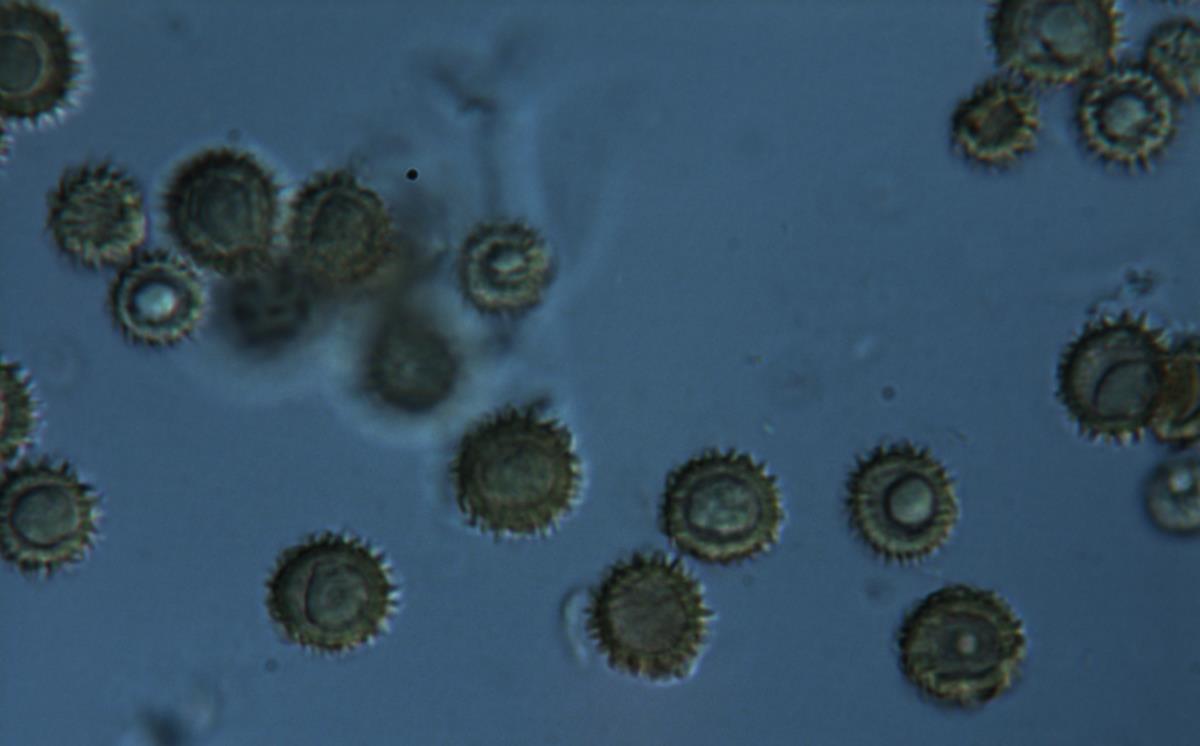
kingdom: Fungi
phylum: Basidiomycota
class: Agaricomycetes
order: Boletales
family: Sclerodermataceae
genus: Pisolithus
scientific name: Pisolithus albus
